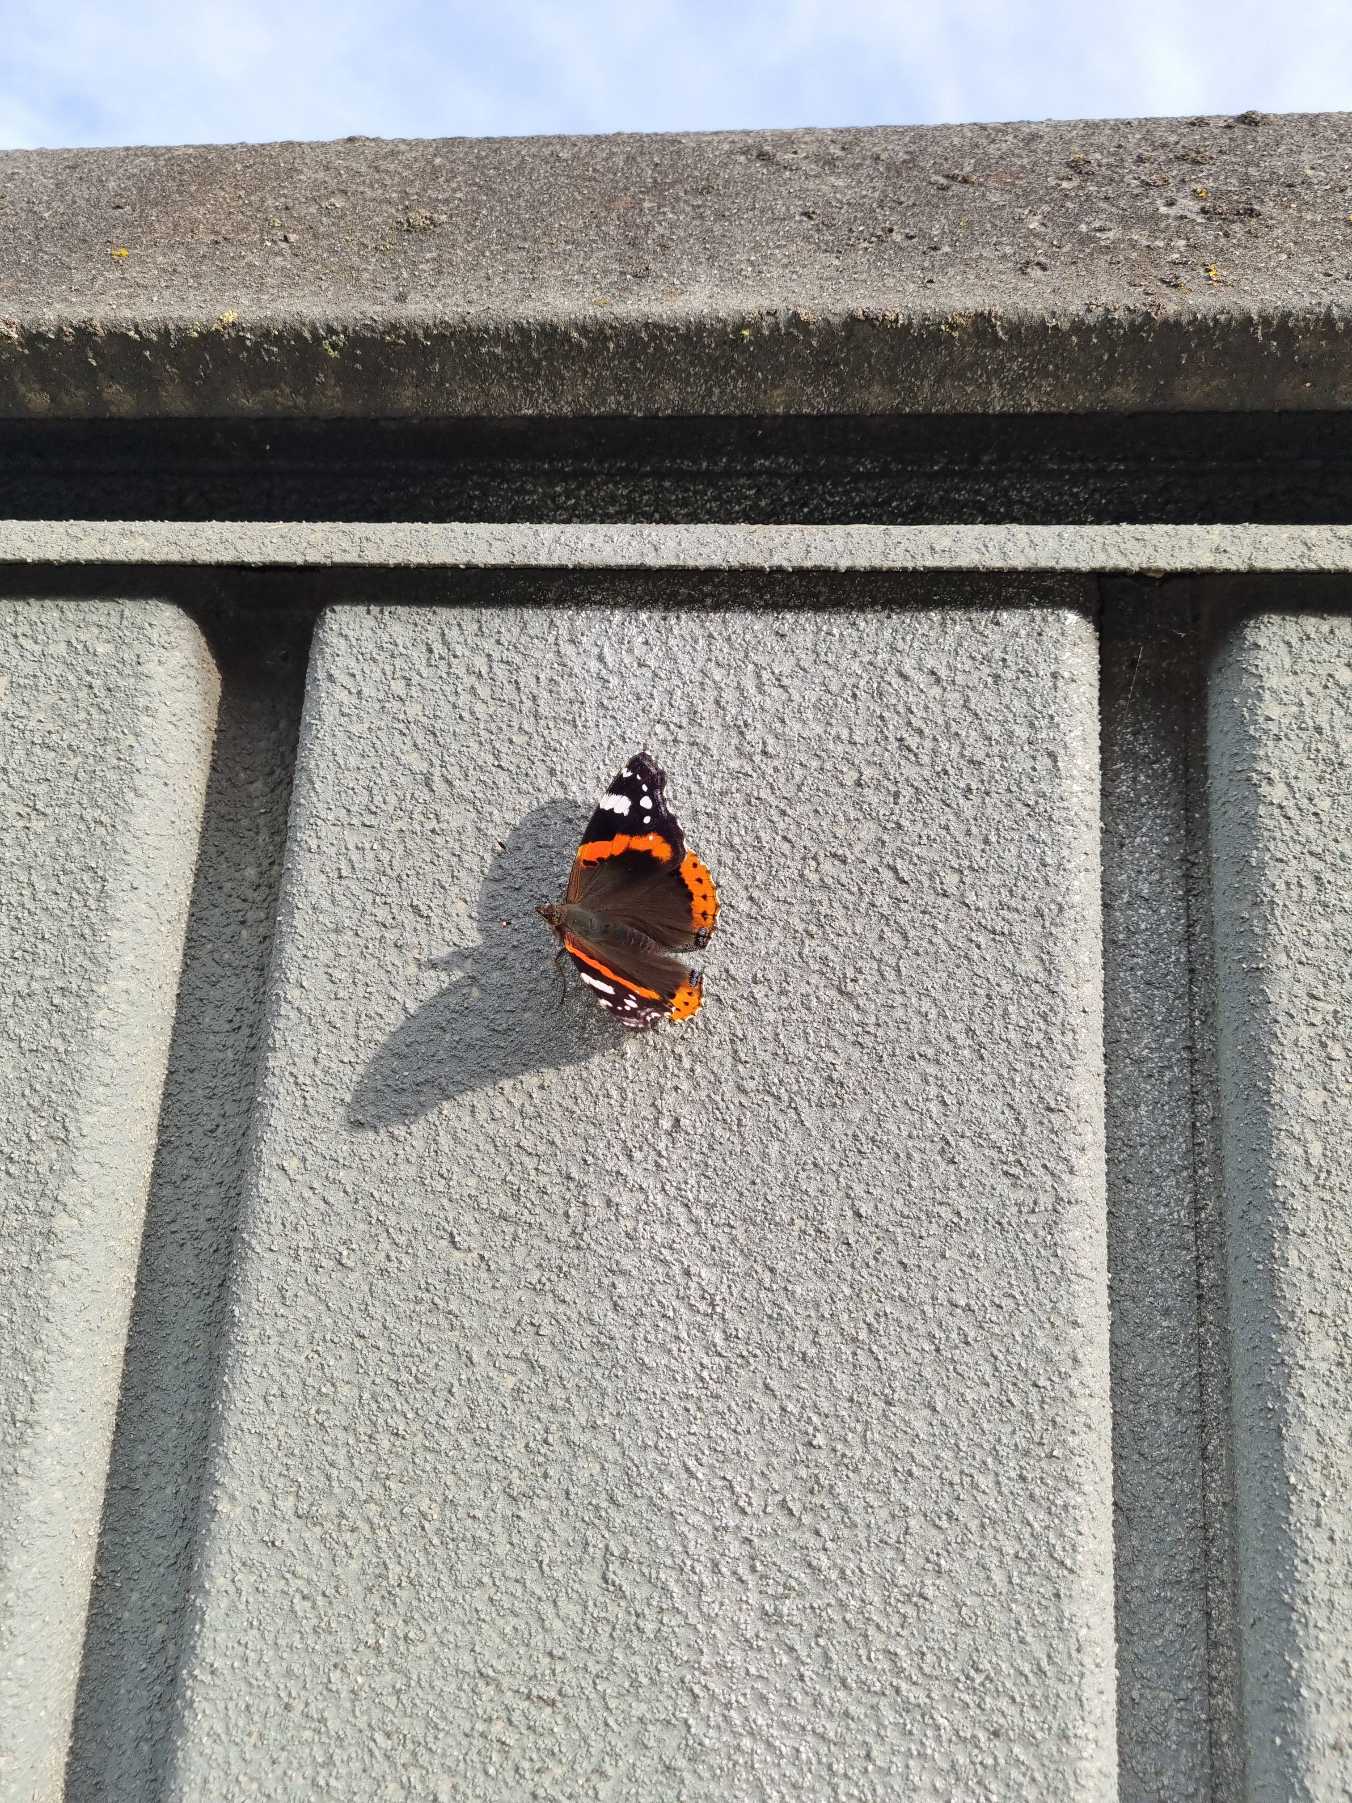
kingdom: Animalia
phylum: Arthropoda
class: Insecta
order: Lepidoptera
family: Nymphalidae
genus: Vanessa
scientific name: Vanessa atalanta
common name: Admiral
